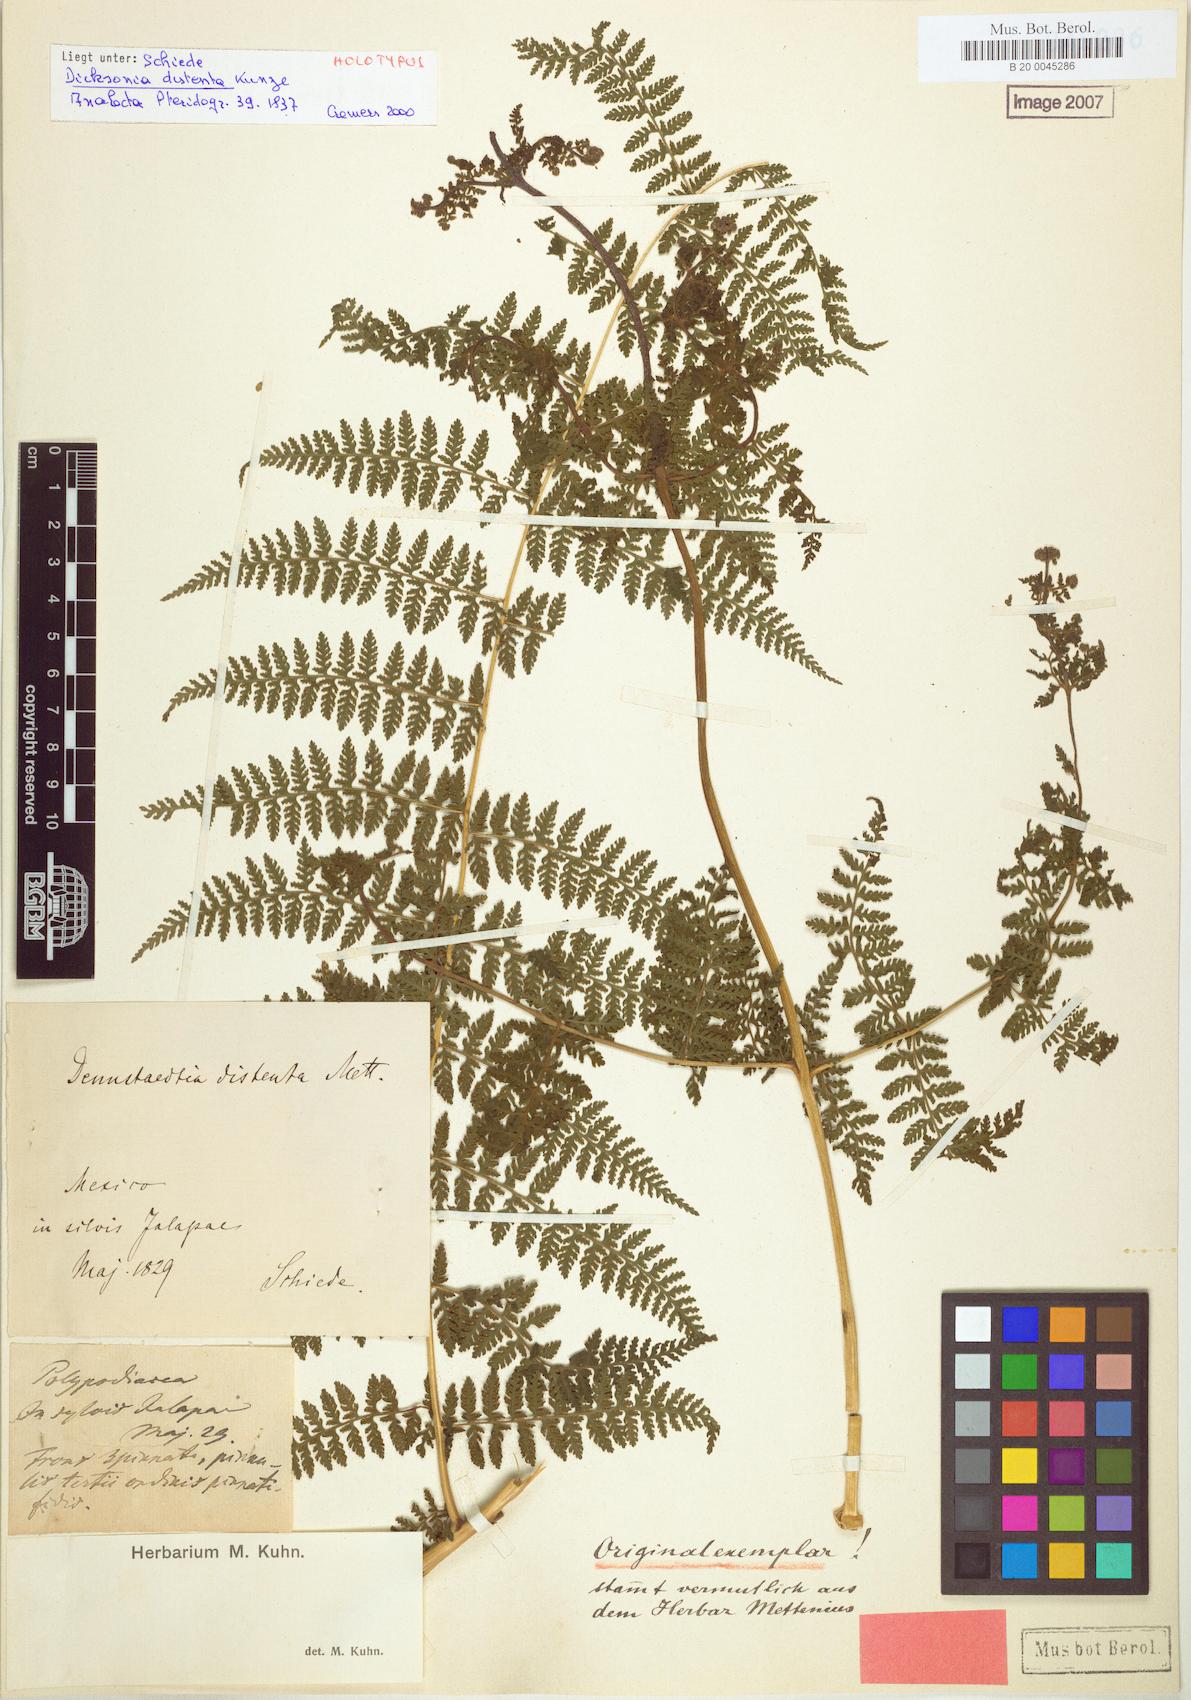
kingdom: Plantae
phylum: Tracheophyta
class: Polypodiopsida
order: Polypodiales
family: Dennstaedtiaceae
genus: Dennstaedtia
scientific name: Dennstaedtia distenta
